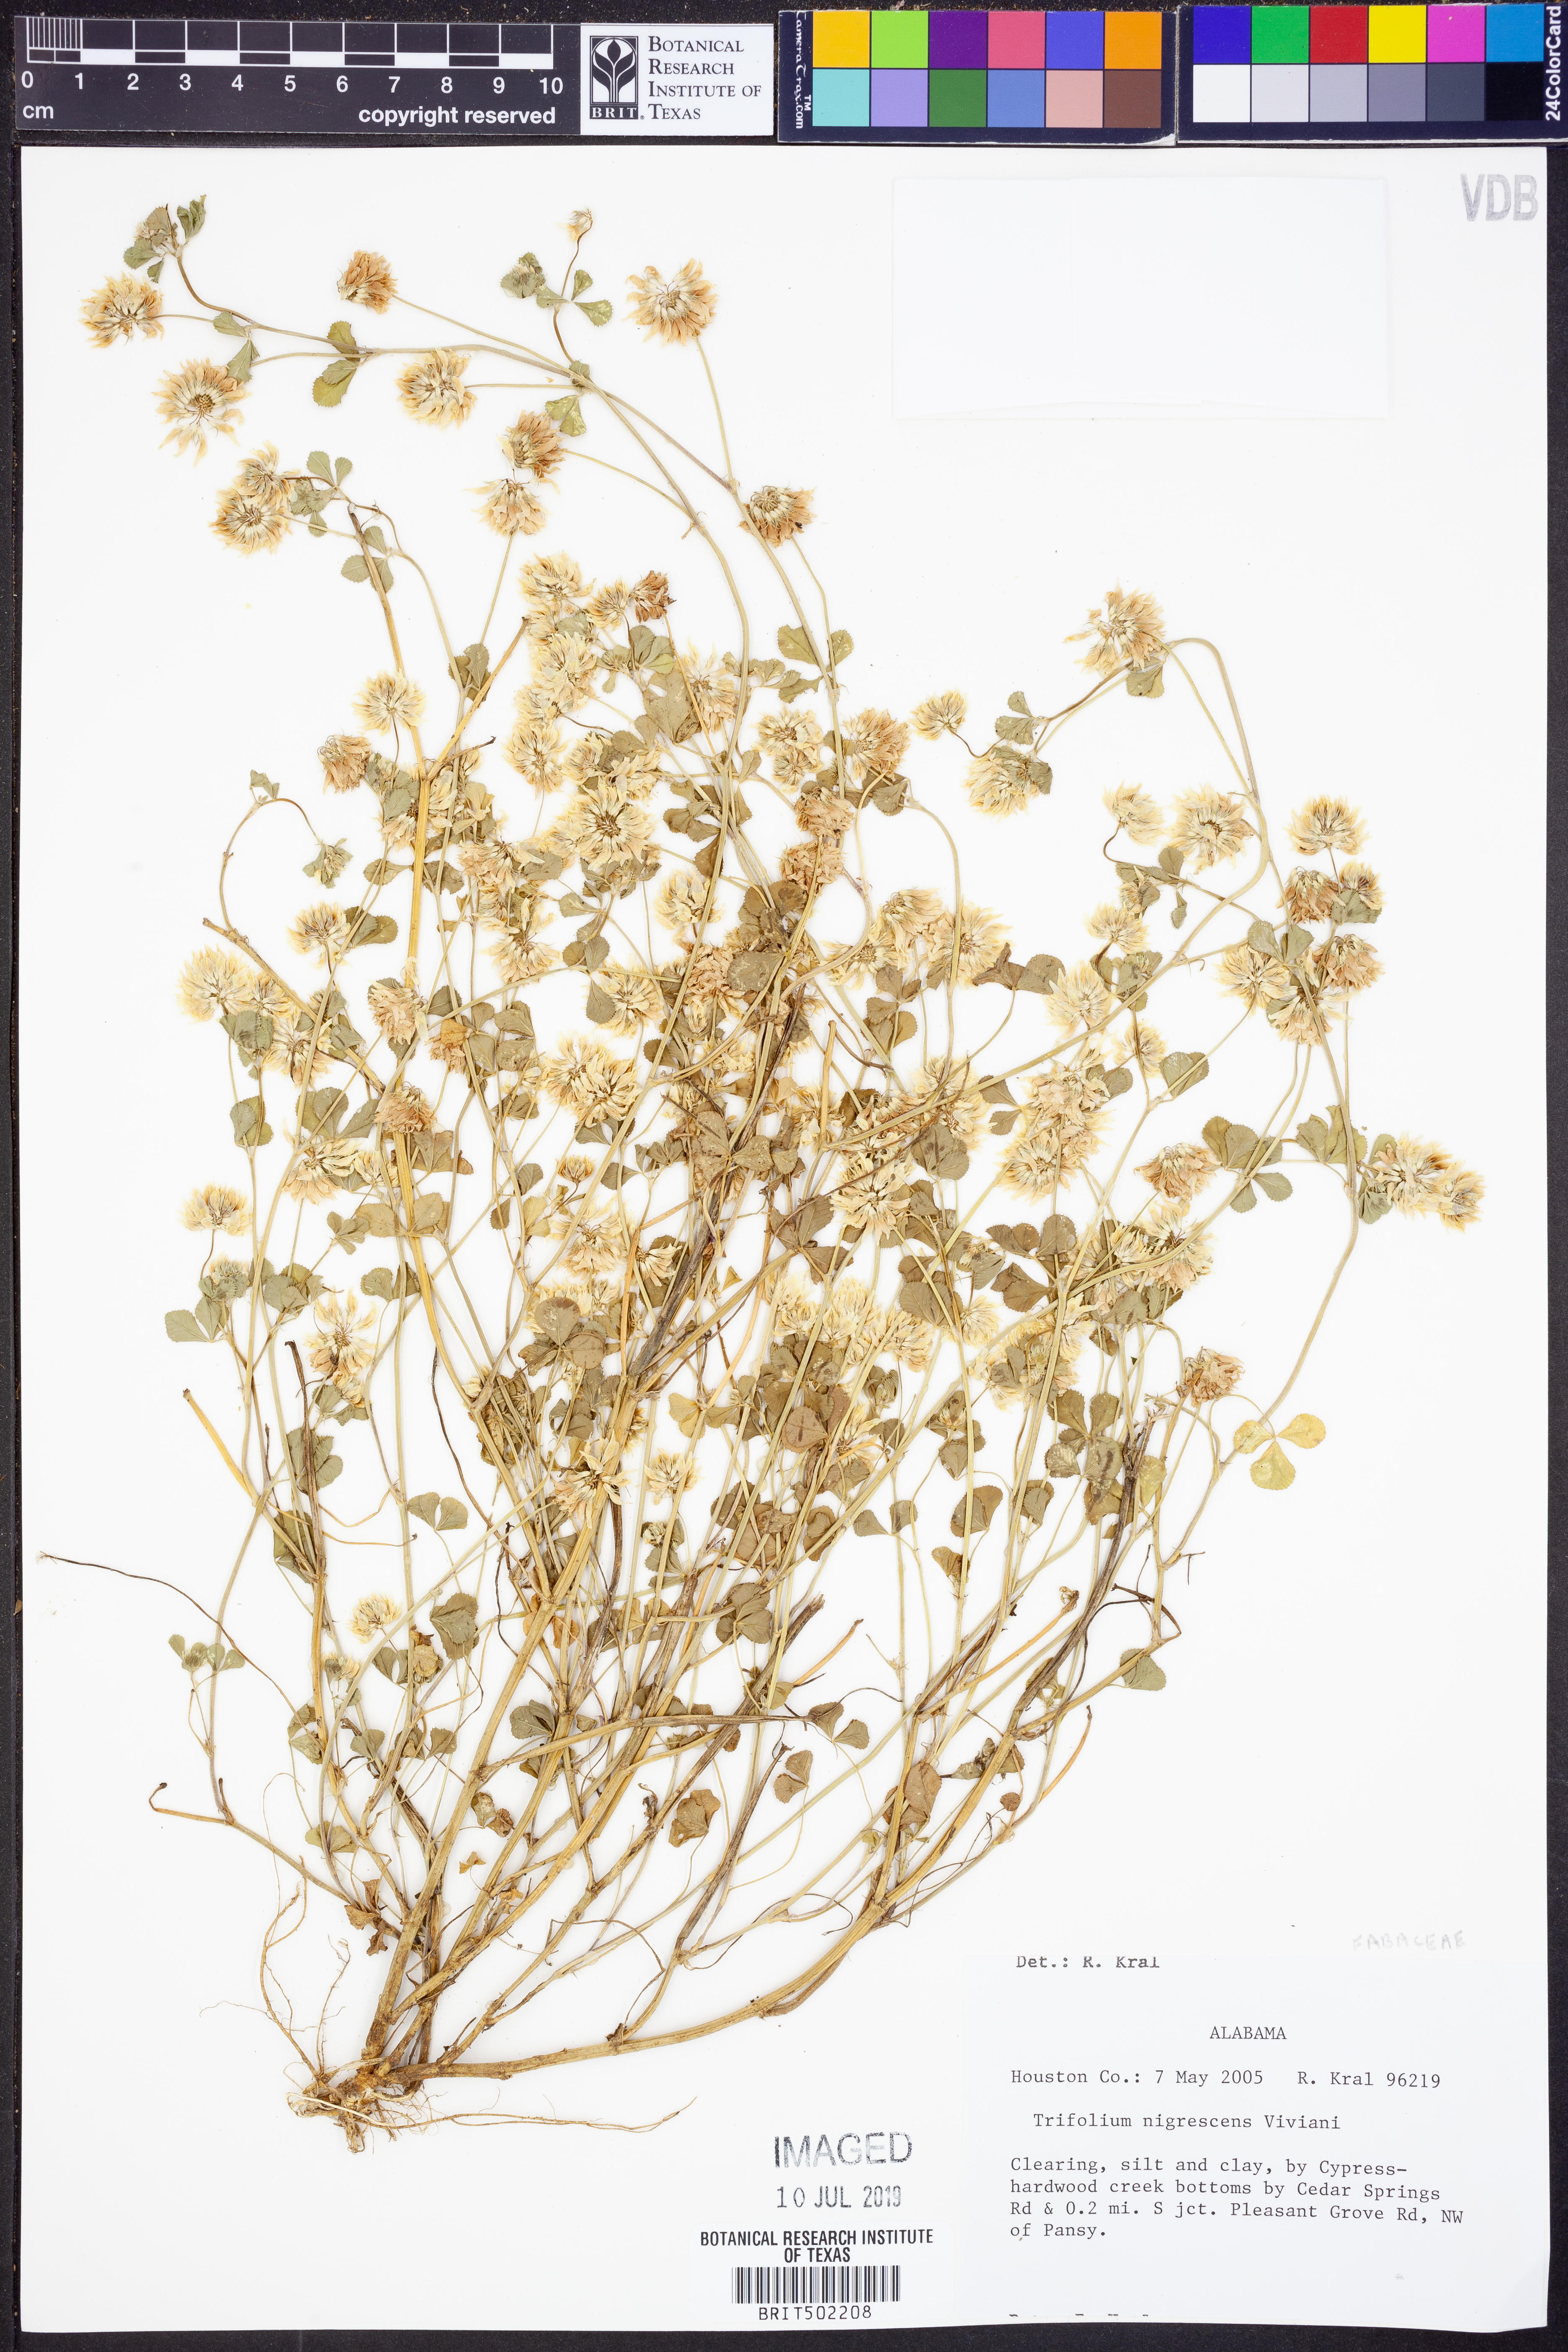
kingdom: Plantae
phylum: Tracheophyta
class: Magnoliopsida
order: Fabales
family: Fabaceae
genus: Trifolium
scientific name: Trifolium nigrescens
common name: Small white clover
